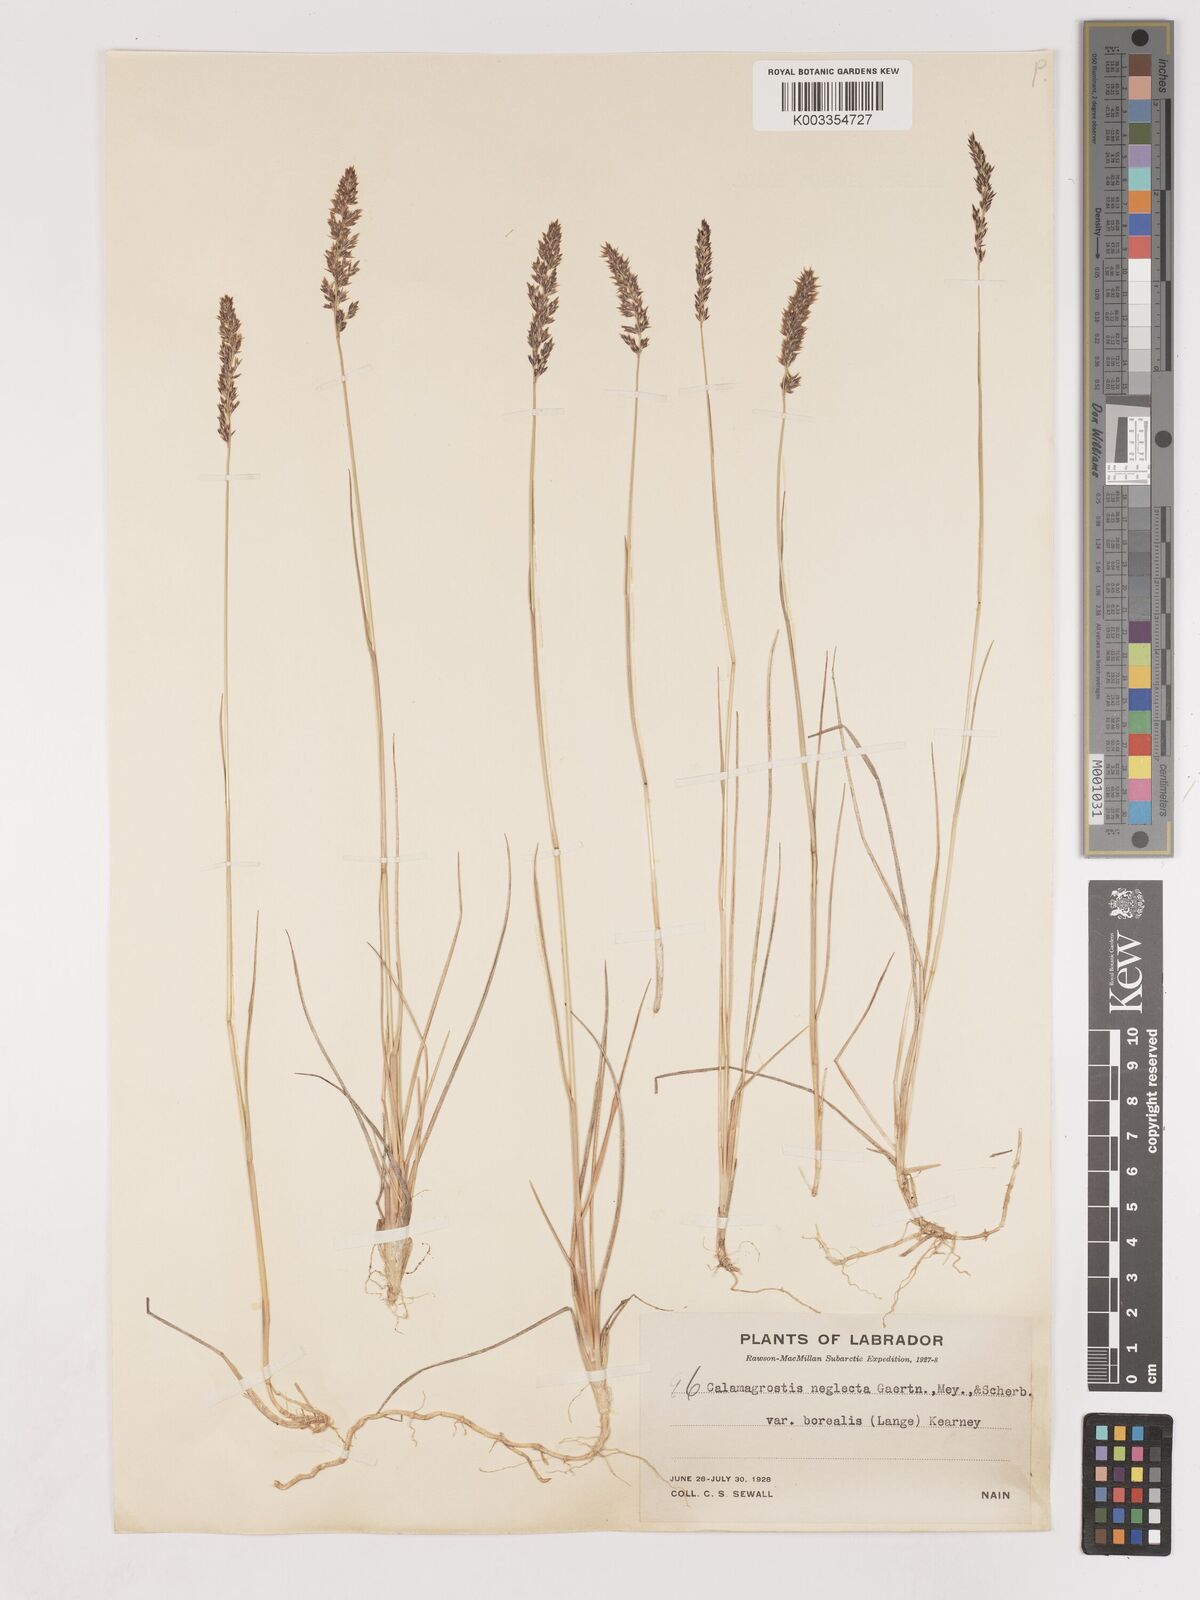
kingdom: Plantae
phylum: Tracheophyta
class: Liliopsida
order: Poales
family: Poaceae
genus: Cinnagrostis
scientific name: Cinnagrostis recta
